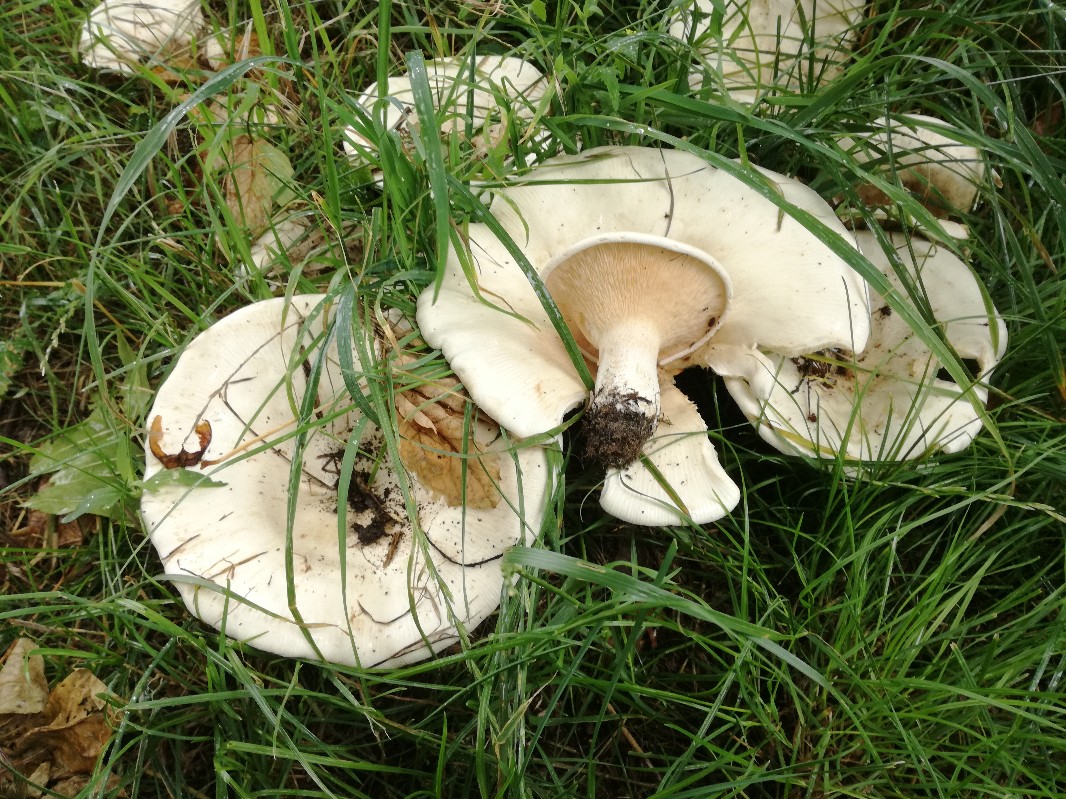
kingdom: Fungi
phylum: Basidiomycota
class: Agaricomycetes
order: Agaricales
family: Tricholomataceae
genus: Aspropaxillus
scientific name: Aspropaxillus giganteus
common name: kæmpe-tragtridderhat
